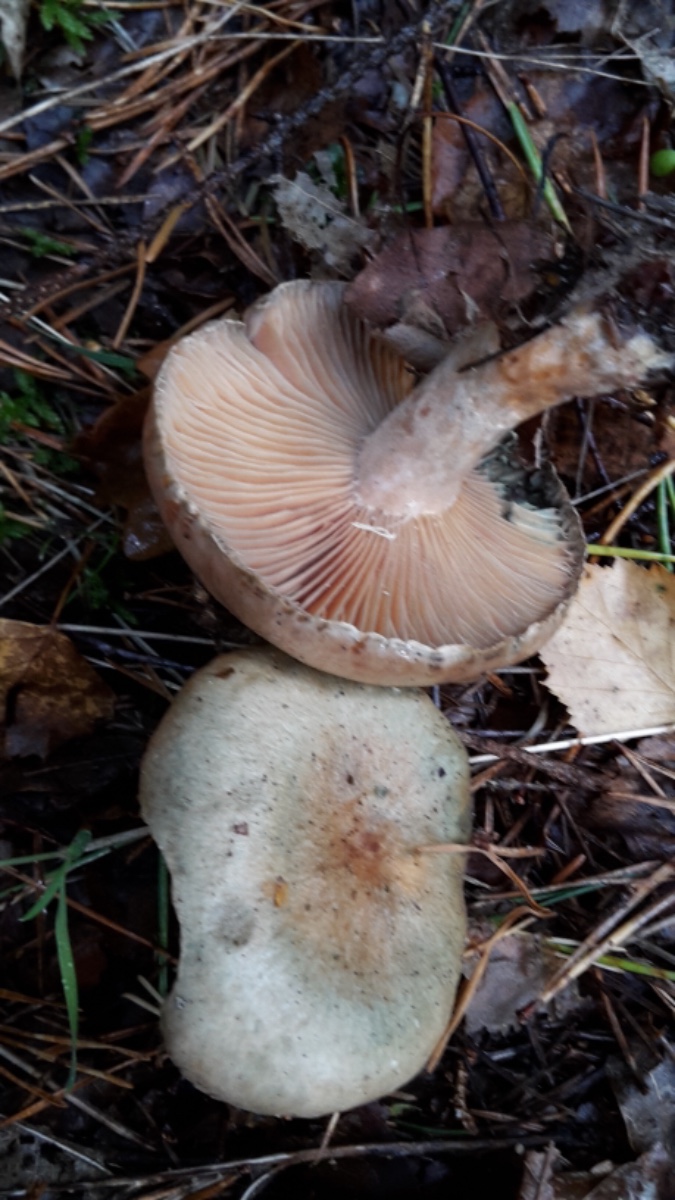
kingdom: Fungi
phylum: Basidiomycota
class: Agaricomycetes
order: Russulales
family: Russulaceae
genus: Lactarius
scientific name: Lactarius quieticolor
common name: tvefarvet mælkehat
